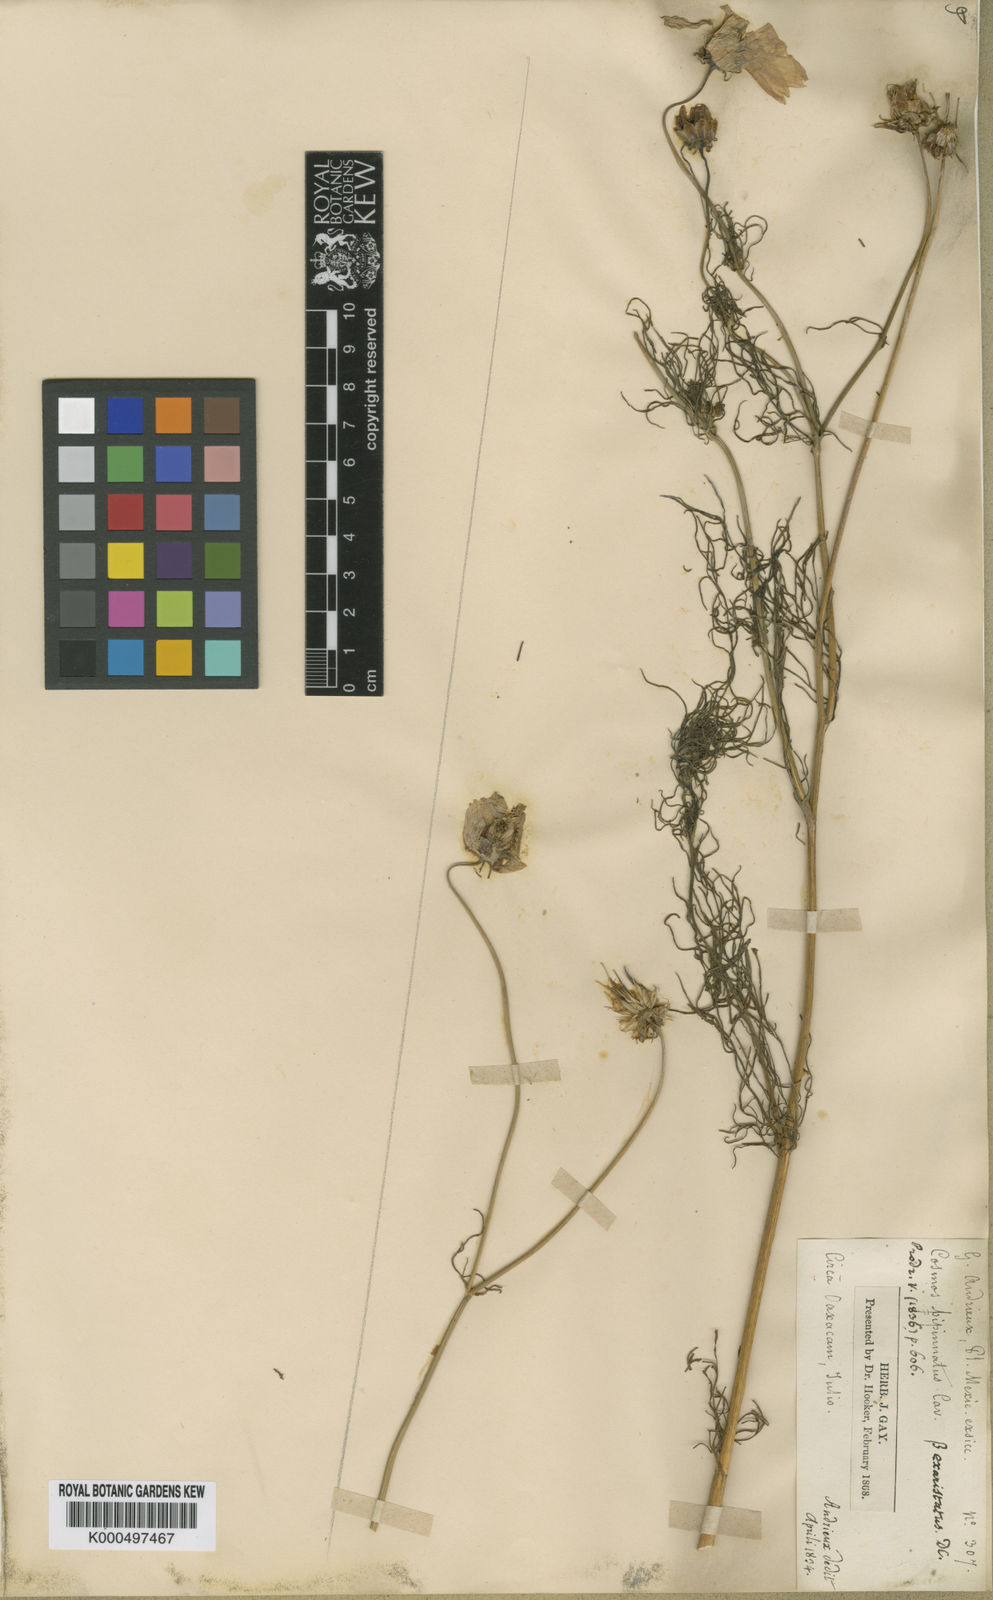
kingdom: Plantae
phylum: Tracheophyta
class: Magnoliopsida
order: Asterales
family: Asteraceae
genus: Cosmos
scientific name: Cosmos bipinnatus
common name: Garden cosmos
